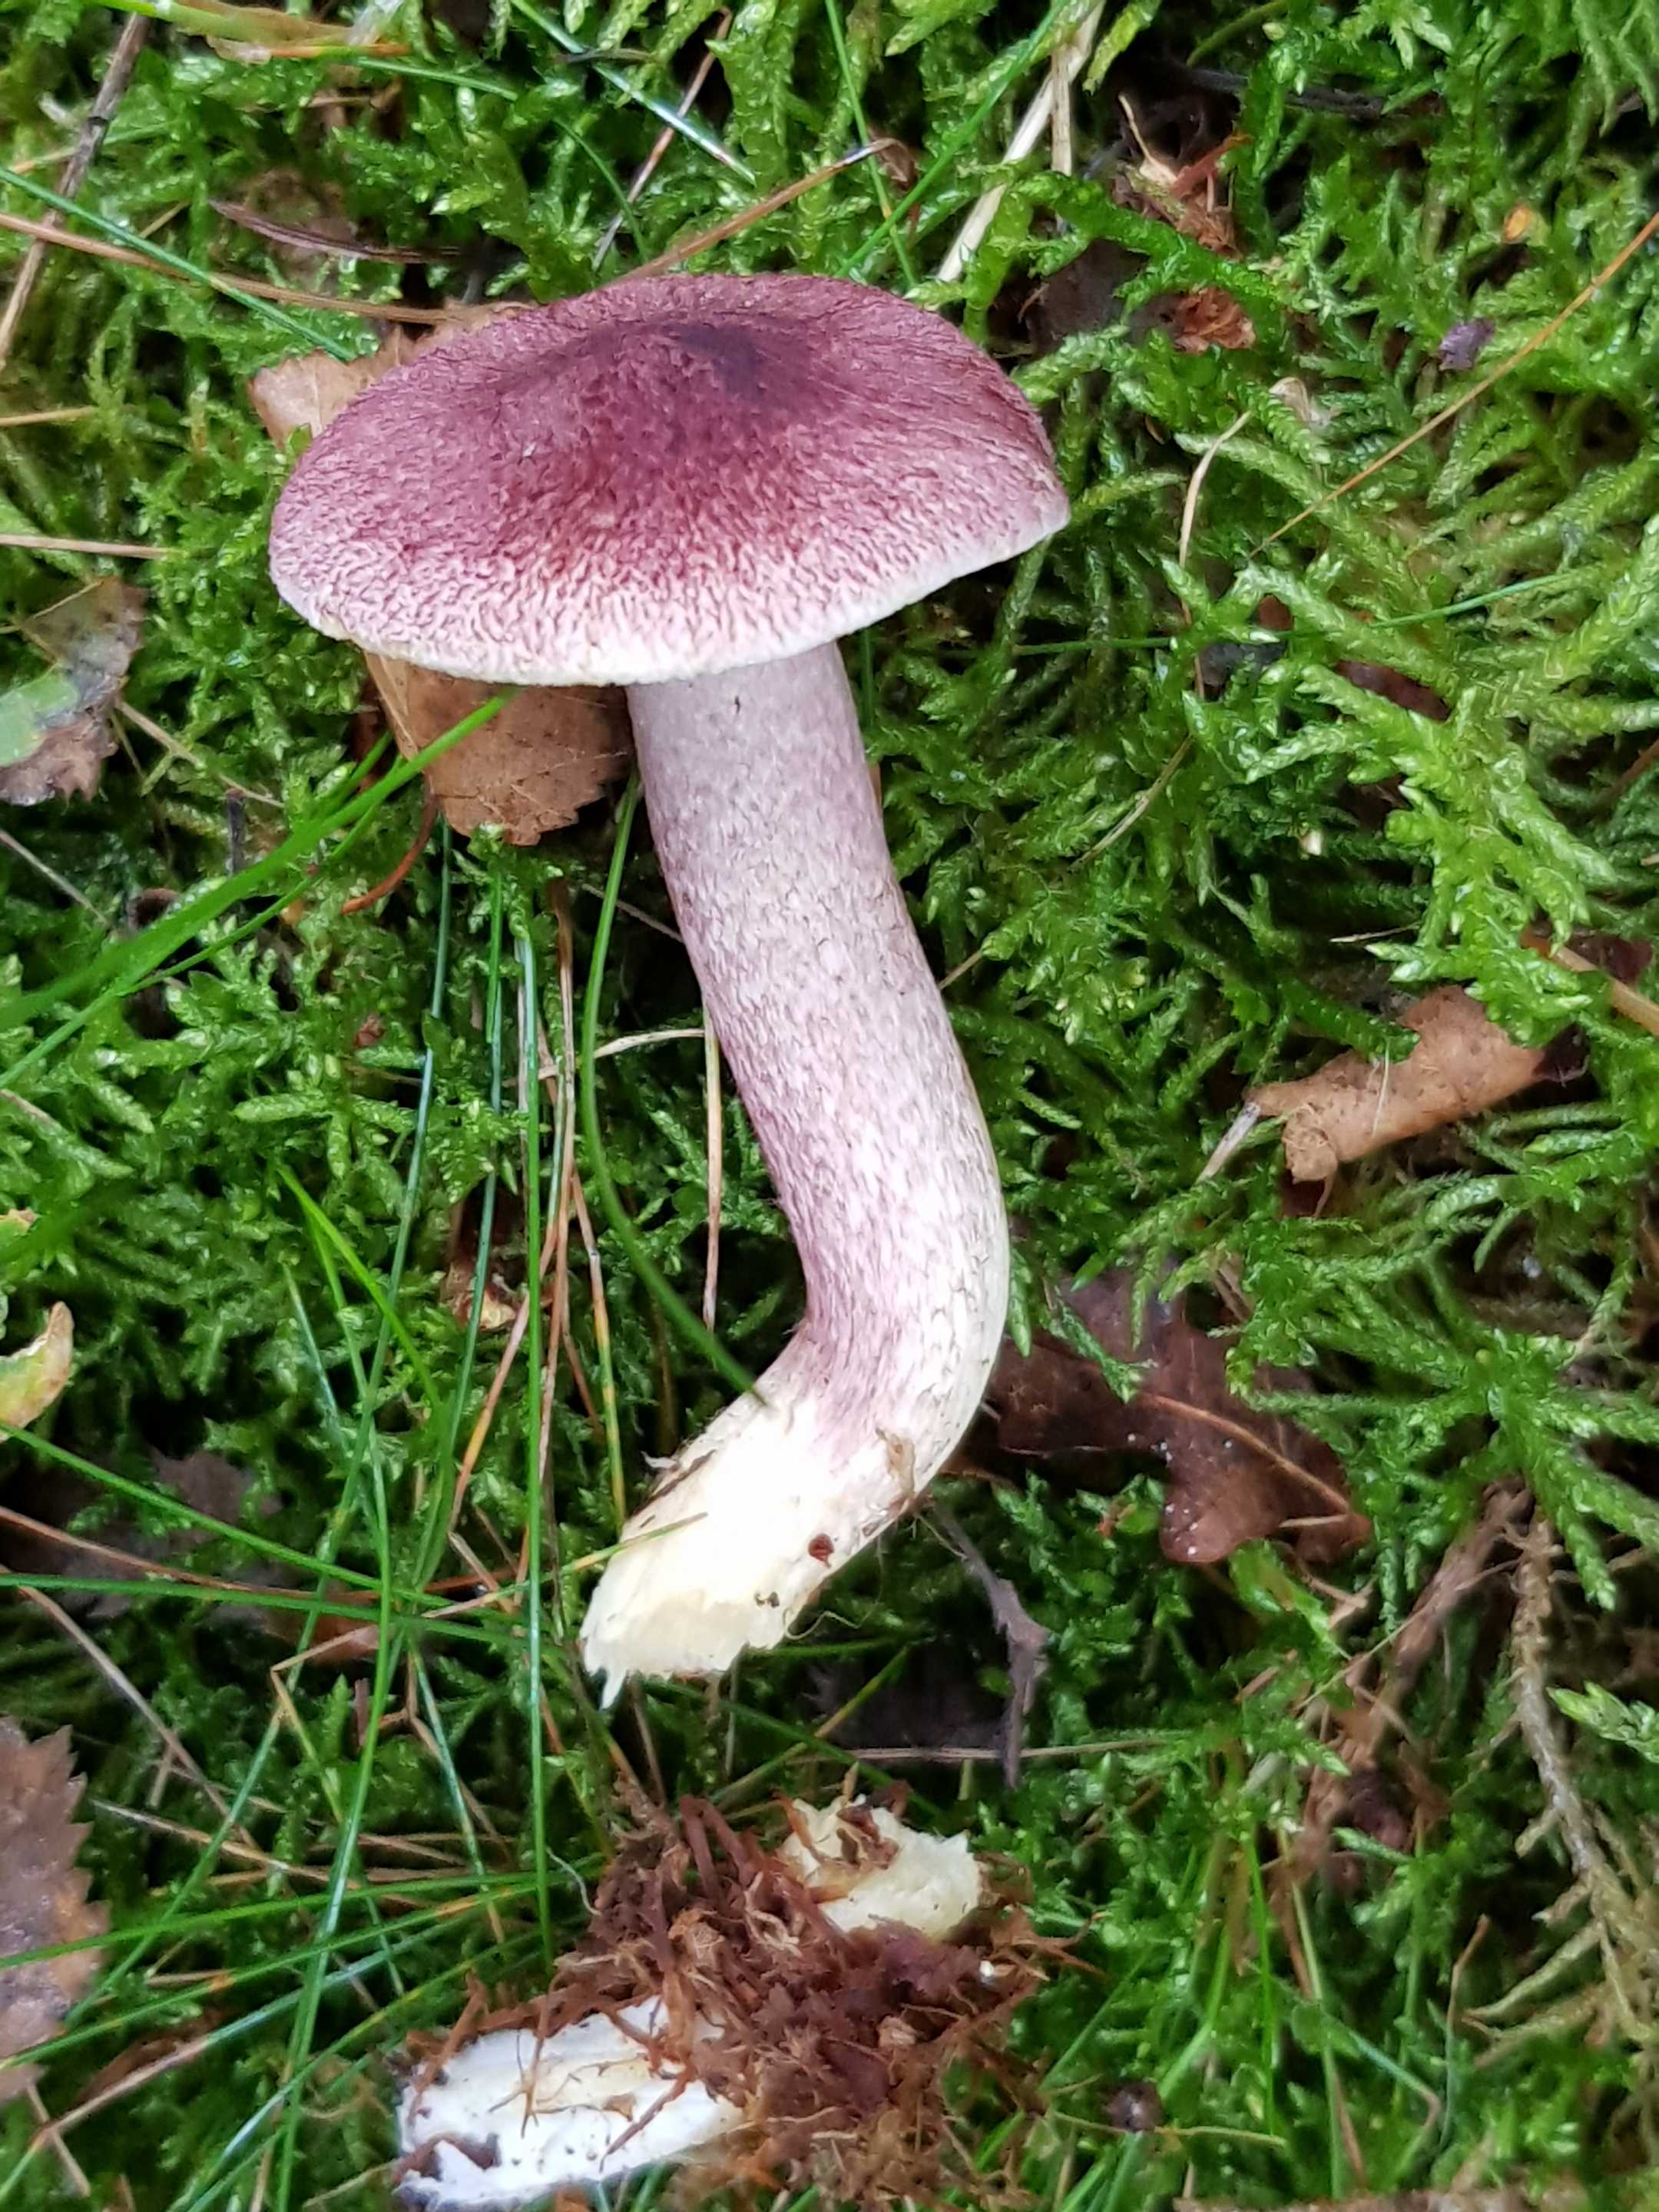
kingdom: Fungi
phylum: Basidiomycota
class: Agaricomycetes
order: Agaricales
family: Tricholomataceae
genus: Tricholomopsis
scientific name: Tricholomopsis rutilans
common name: purpur-væbnerhat
